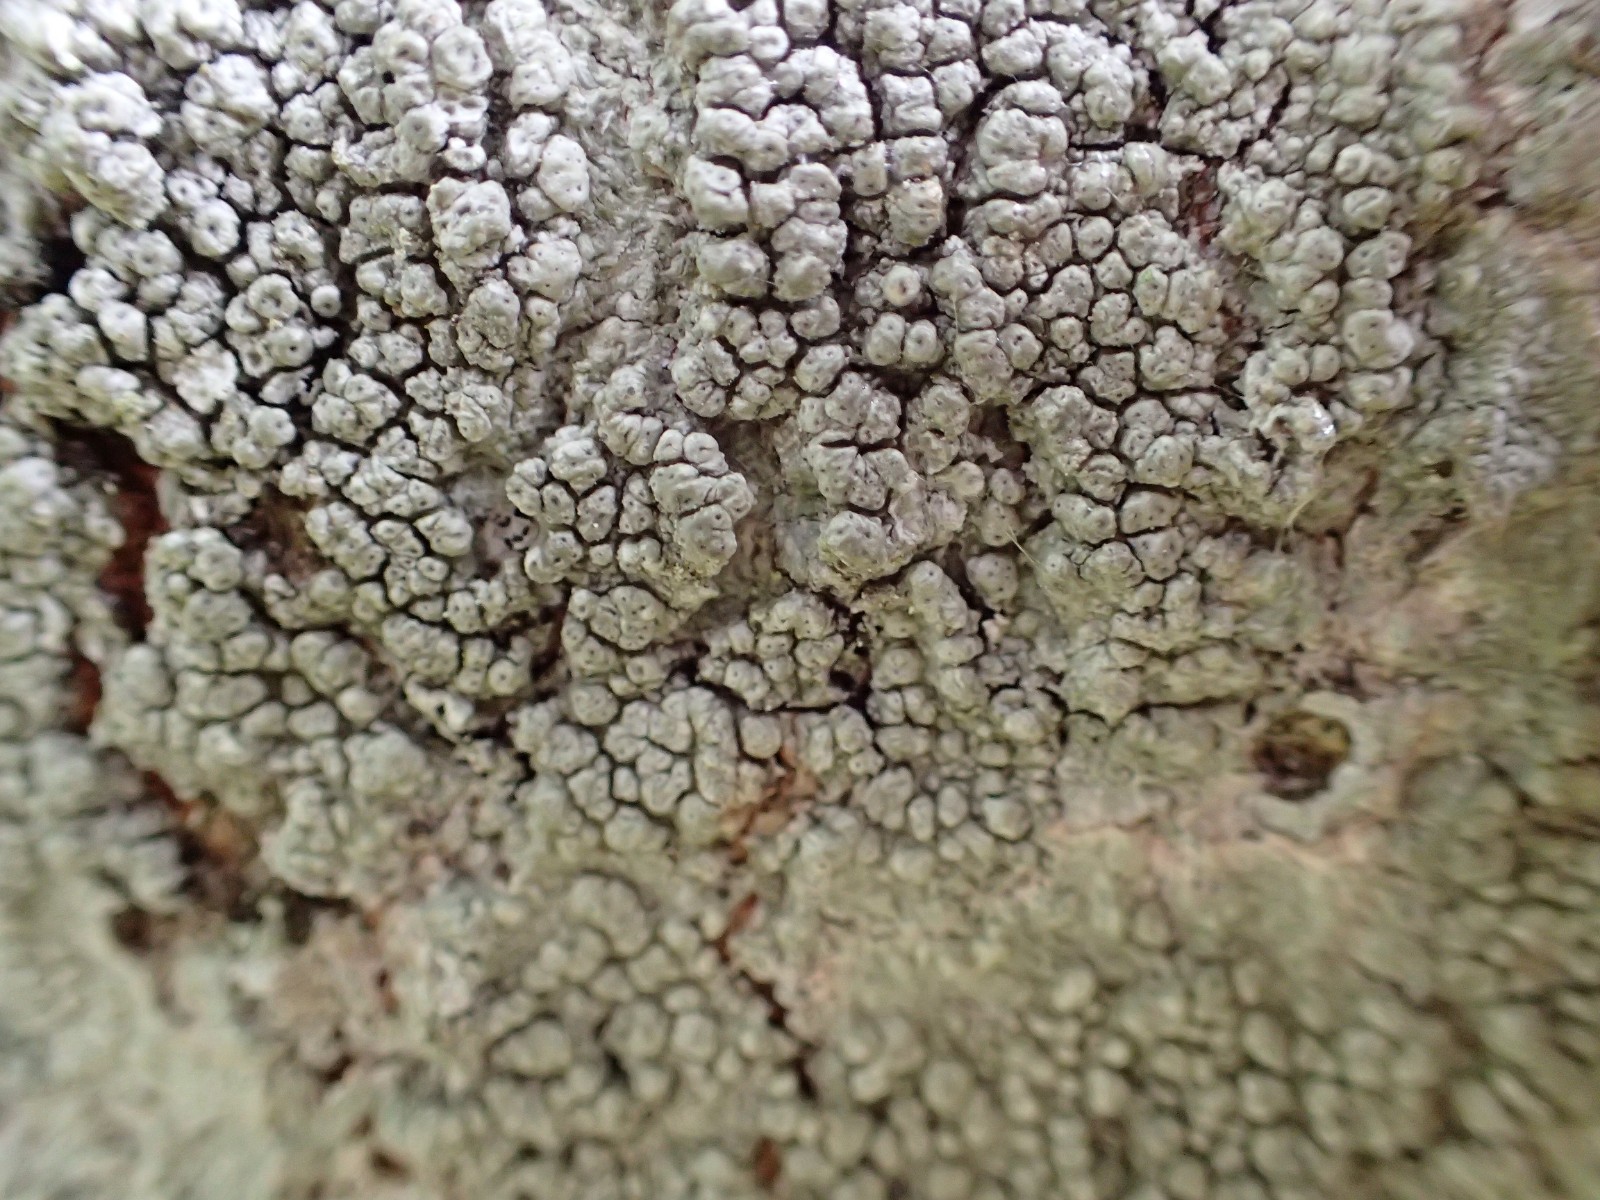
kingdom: Fungi
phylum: Ascomycota
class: Lecanoromycetes
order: Pertusariales
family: Pertusariaceae
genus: Pertusaria
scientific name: Pertusaria pertusa
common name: almindelig prikvortelav
